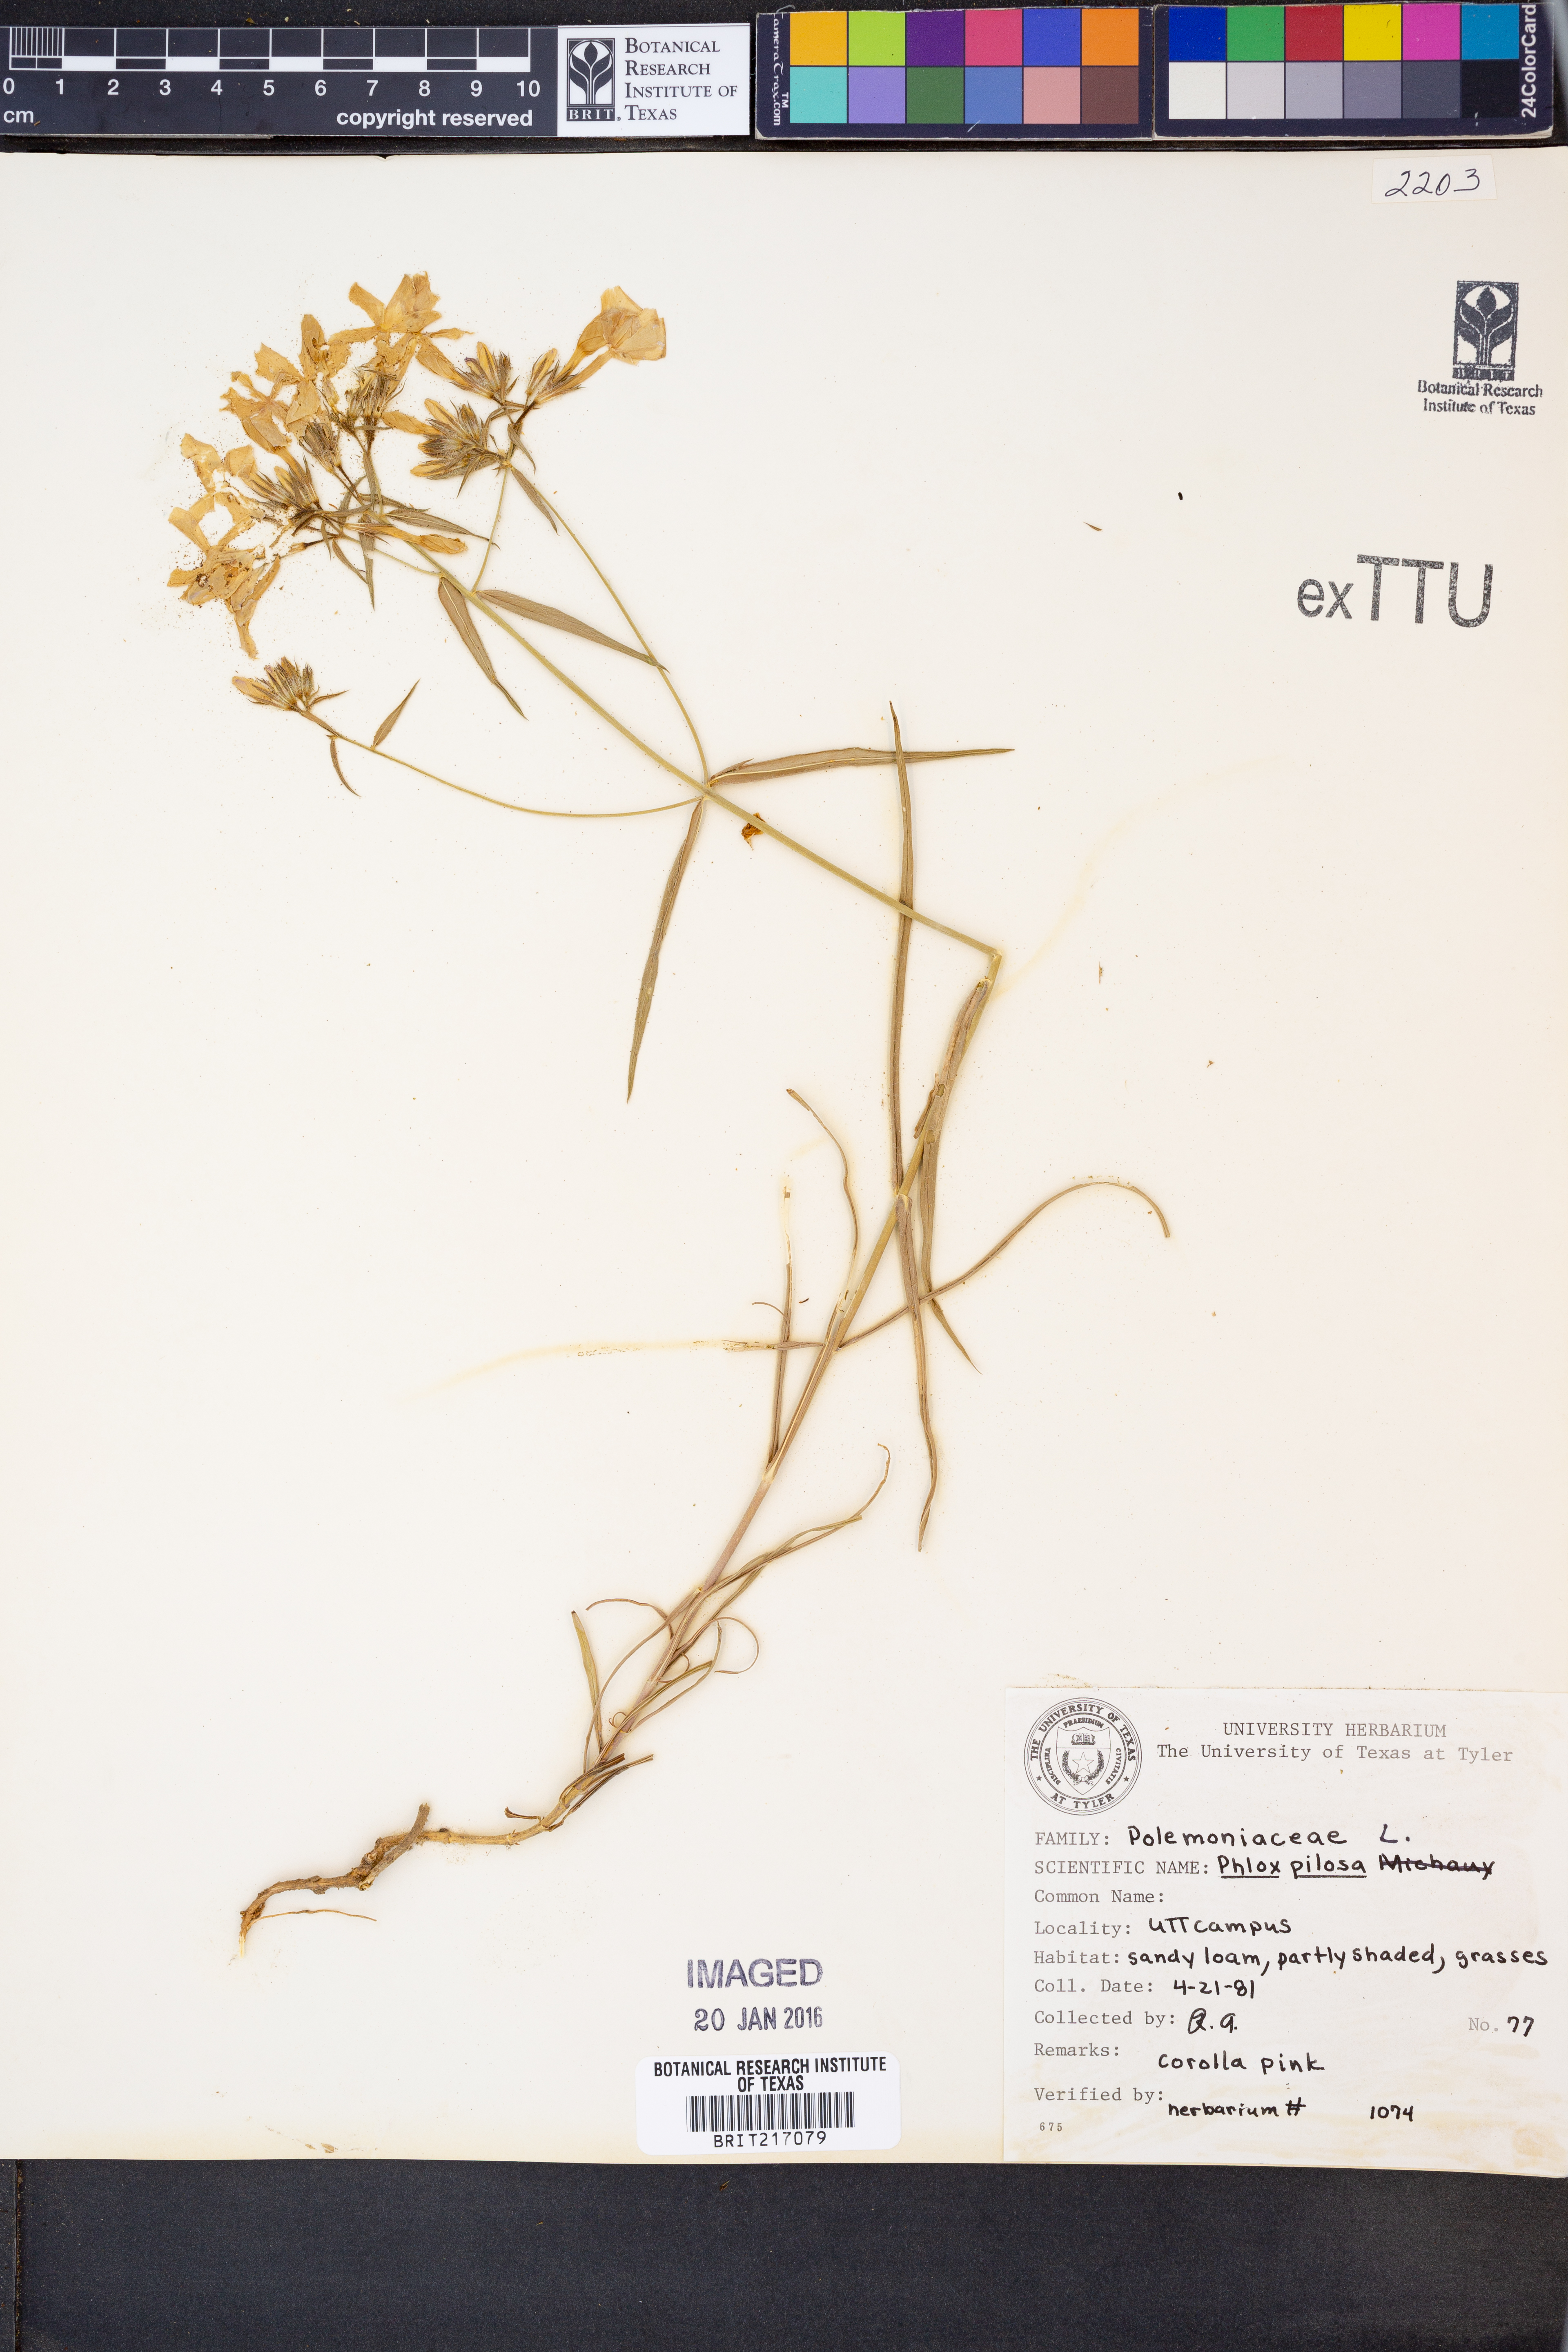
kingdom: Plantae
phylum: Tracheophyta
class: Magnoliopsida
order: Ericales
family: Polemoniaceae
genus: Phlox
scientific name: Phlox pilosa
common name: Prairie phlox
